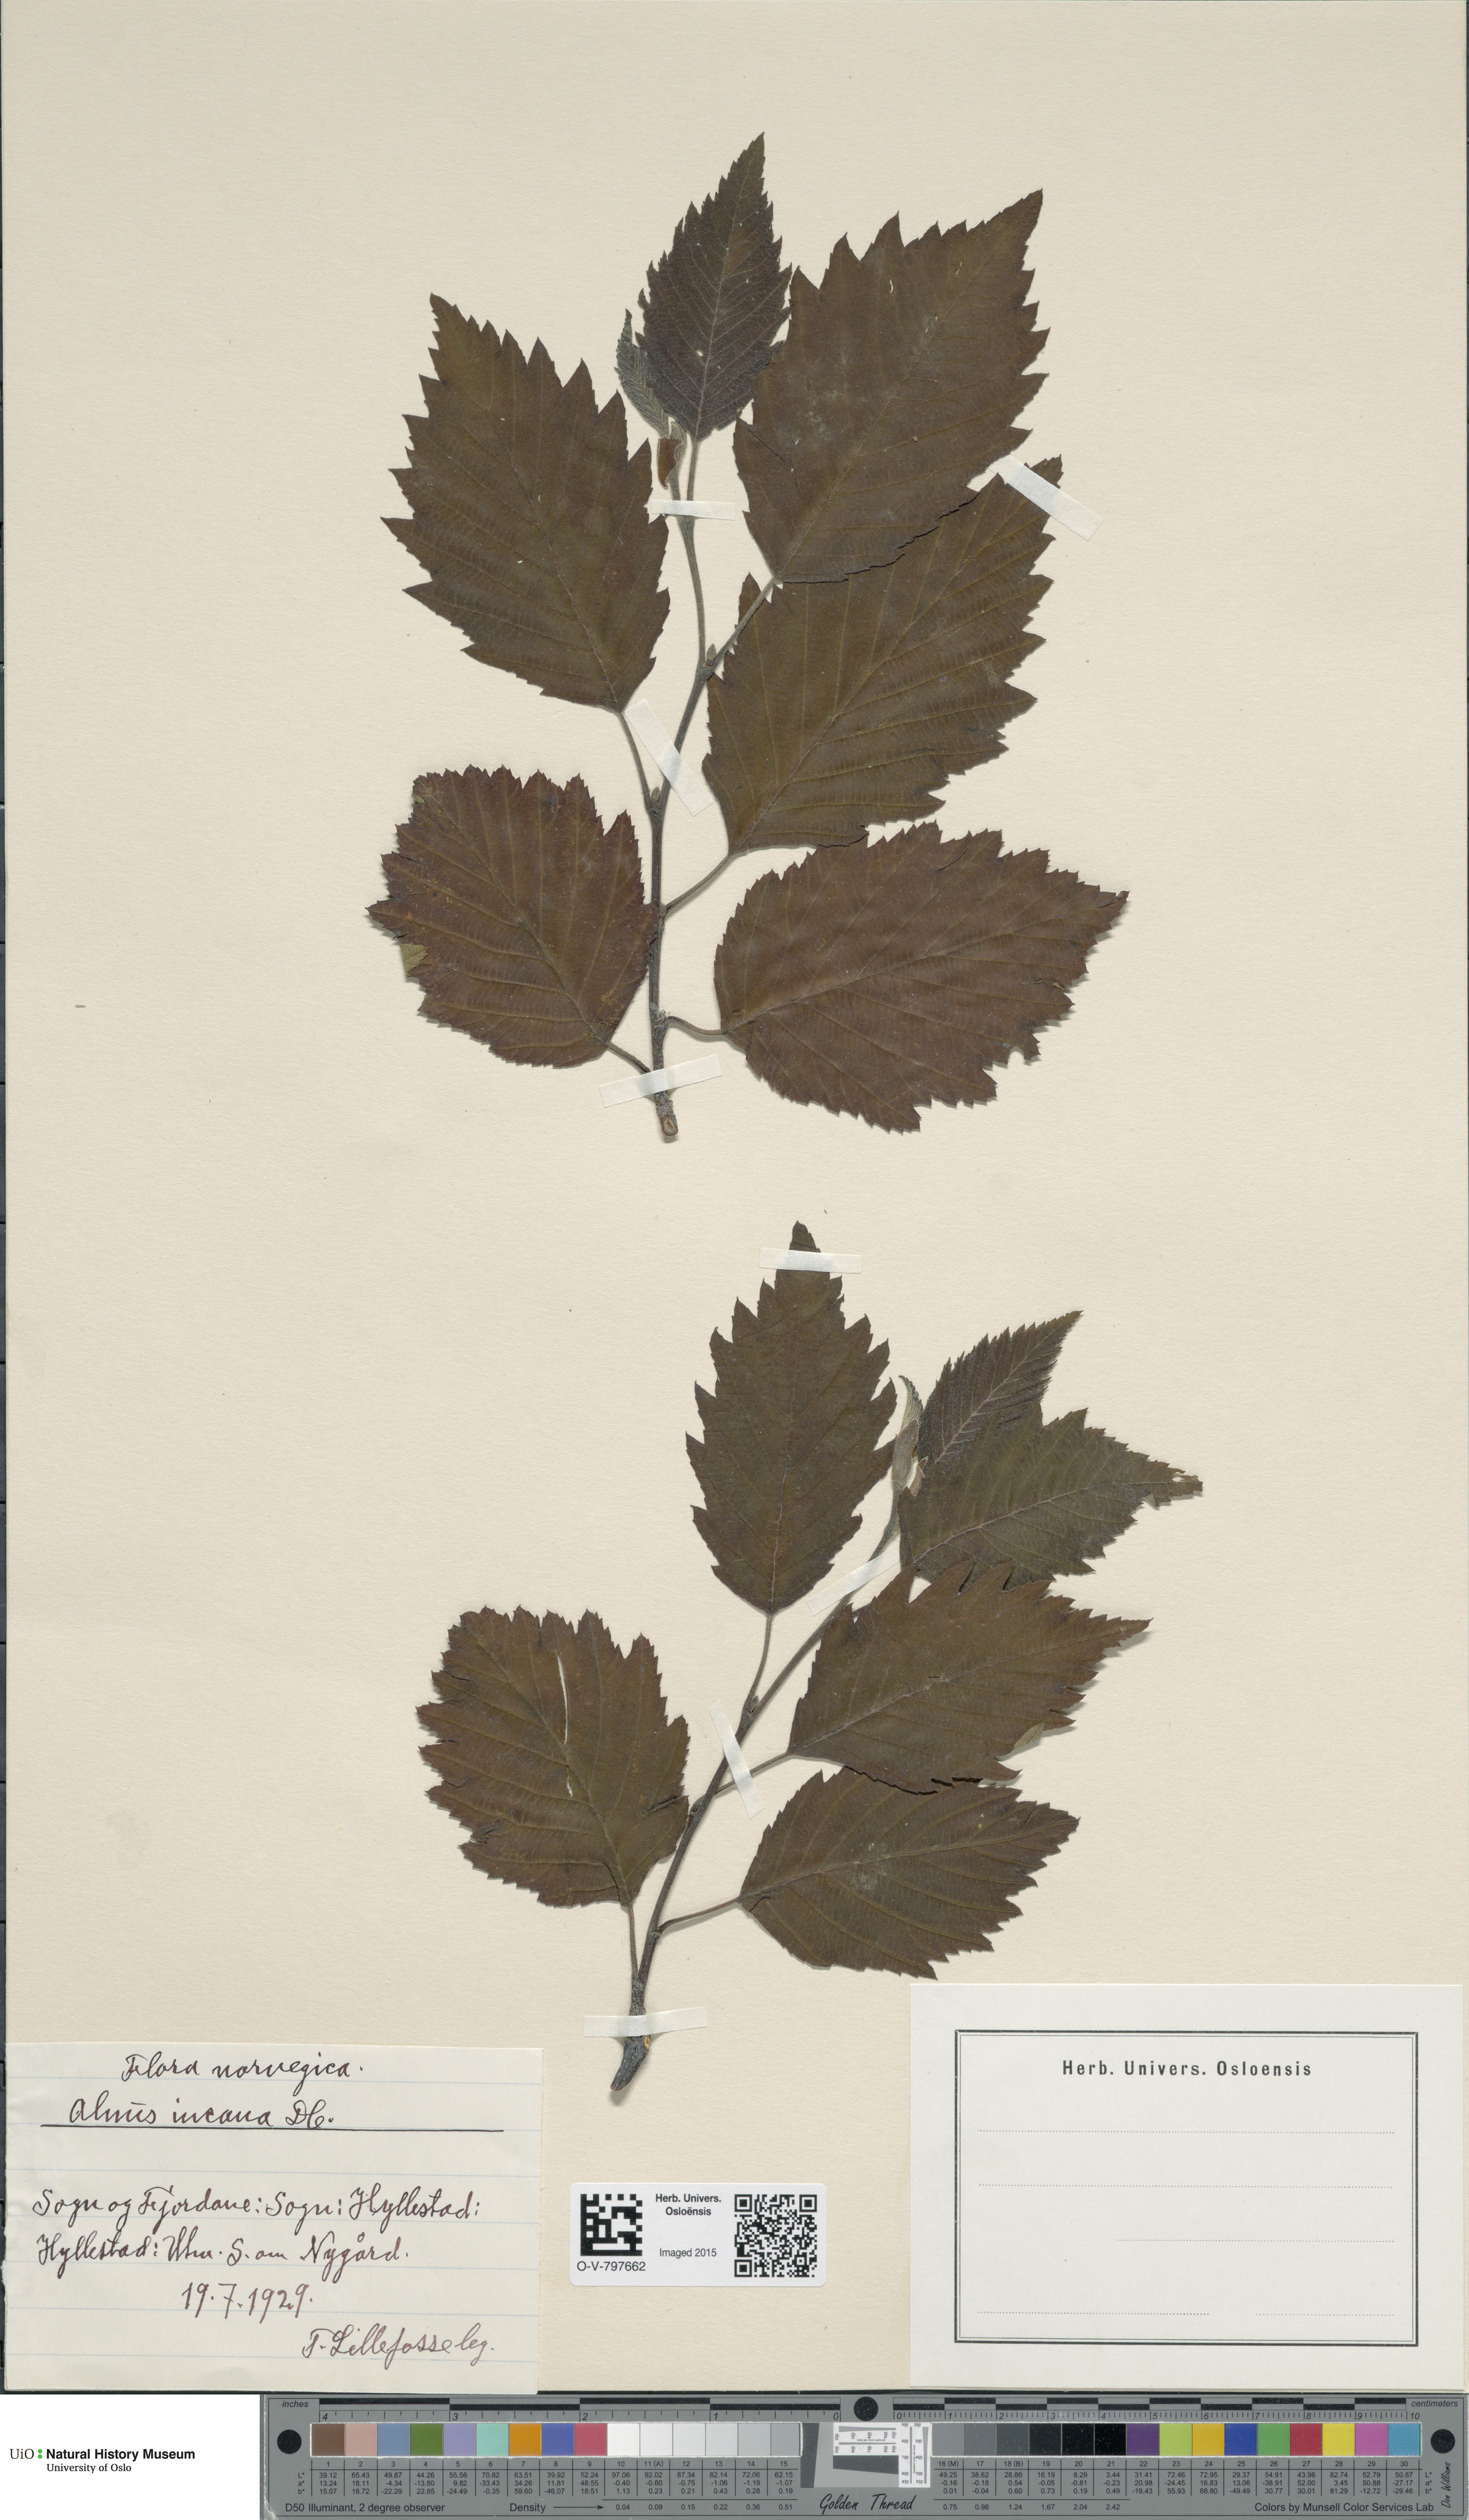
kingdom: Plantae
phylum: Tracheophyta
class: Magnoliopsida
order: Fagales
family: Betulaceae
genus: Alnus
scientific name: Alnus incana
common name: Grey alder
